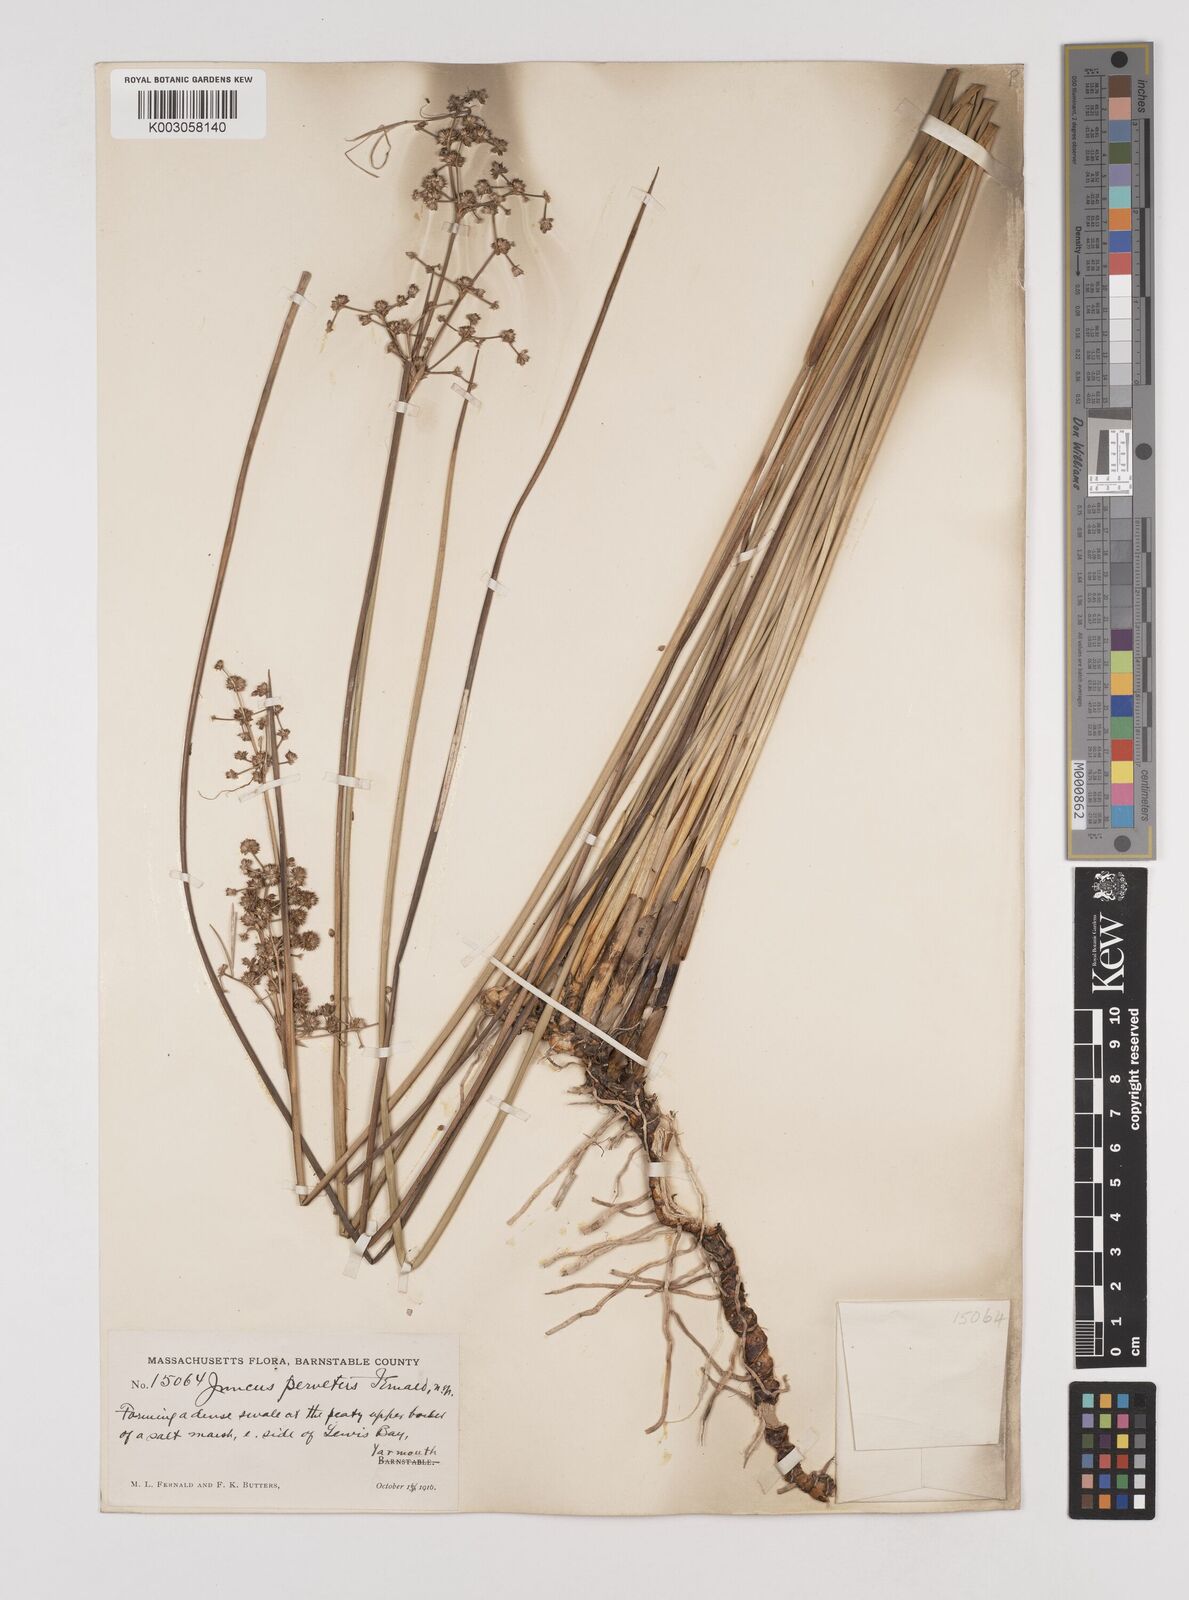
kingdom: Plantae
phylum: Tracheophyta
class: Liliopsida
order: Poales
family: Juncaceae
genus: Juncus
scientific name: Juncus subnodulosus
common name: Blunt-flowered rush
